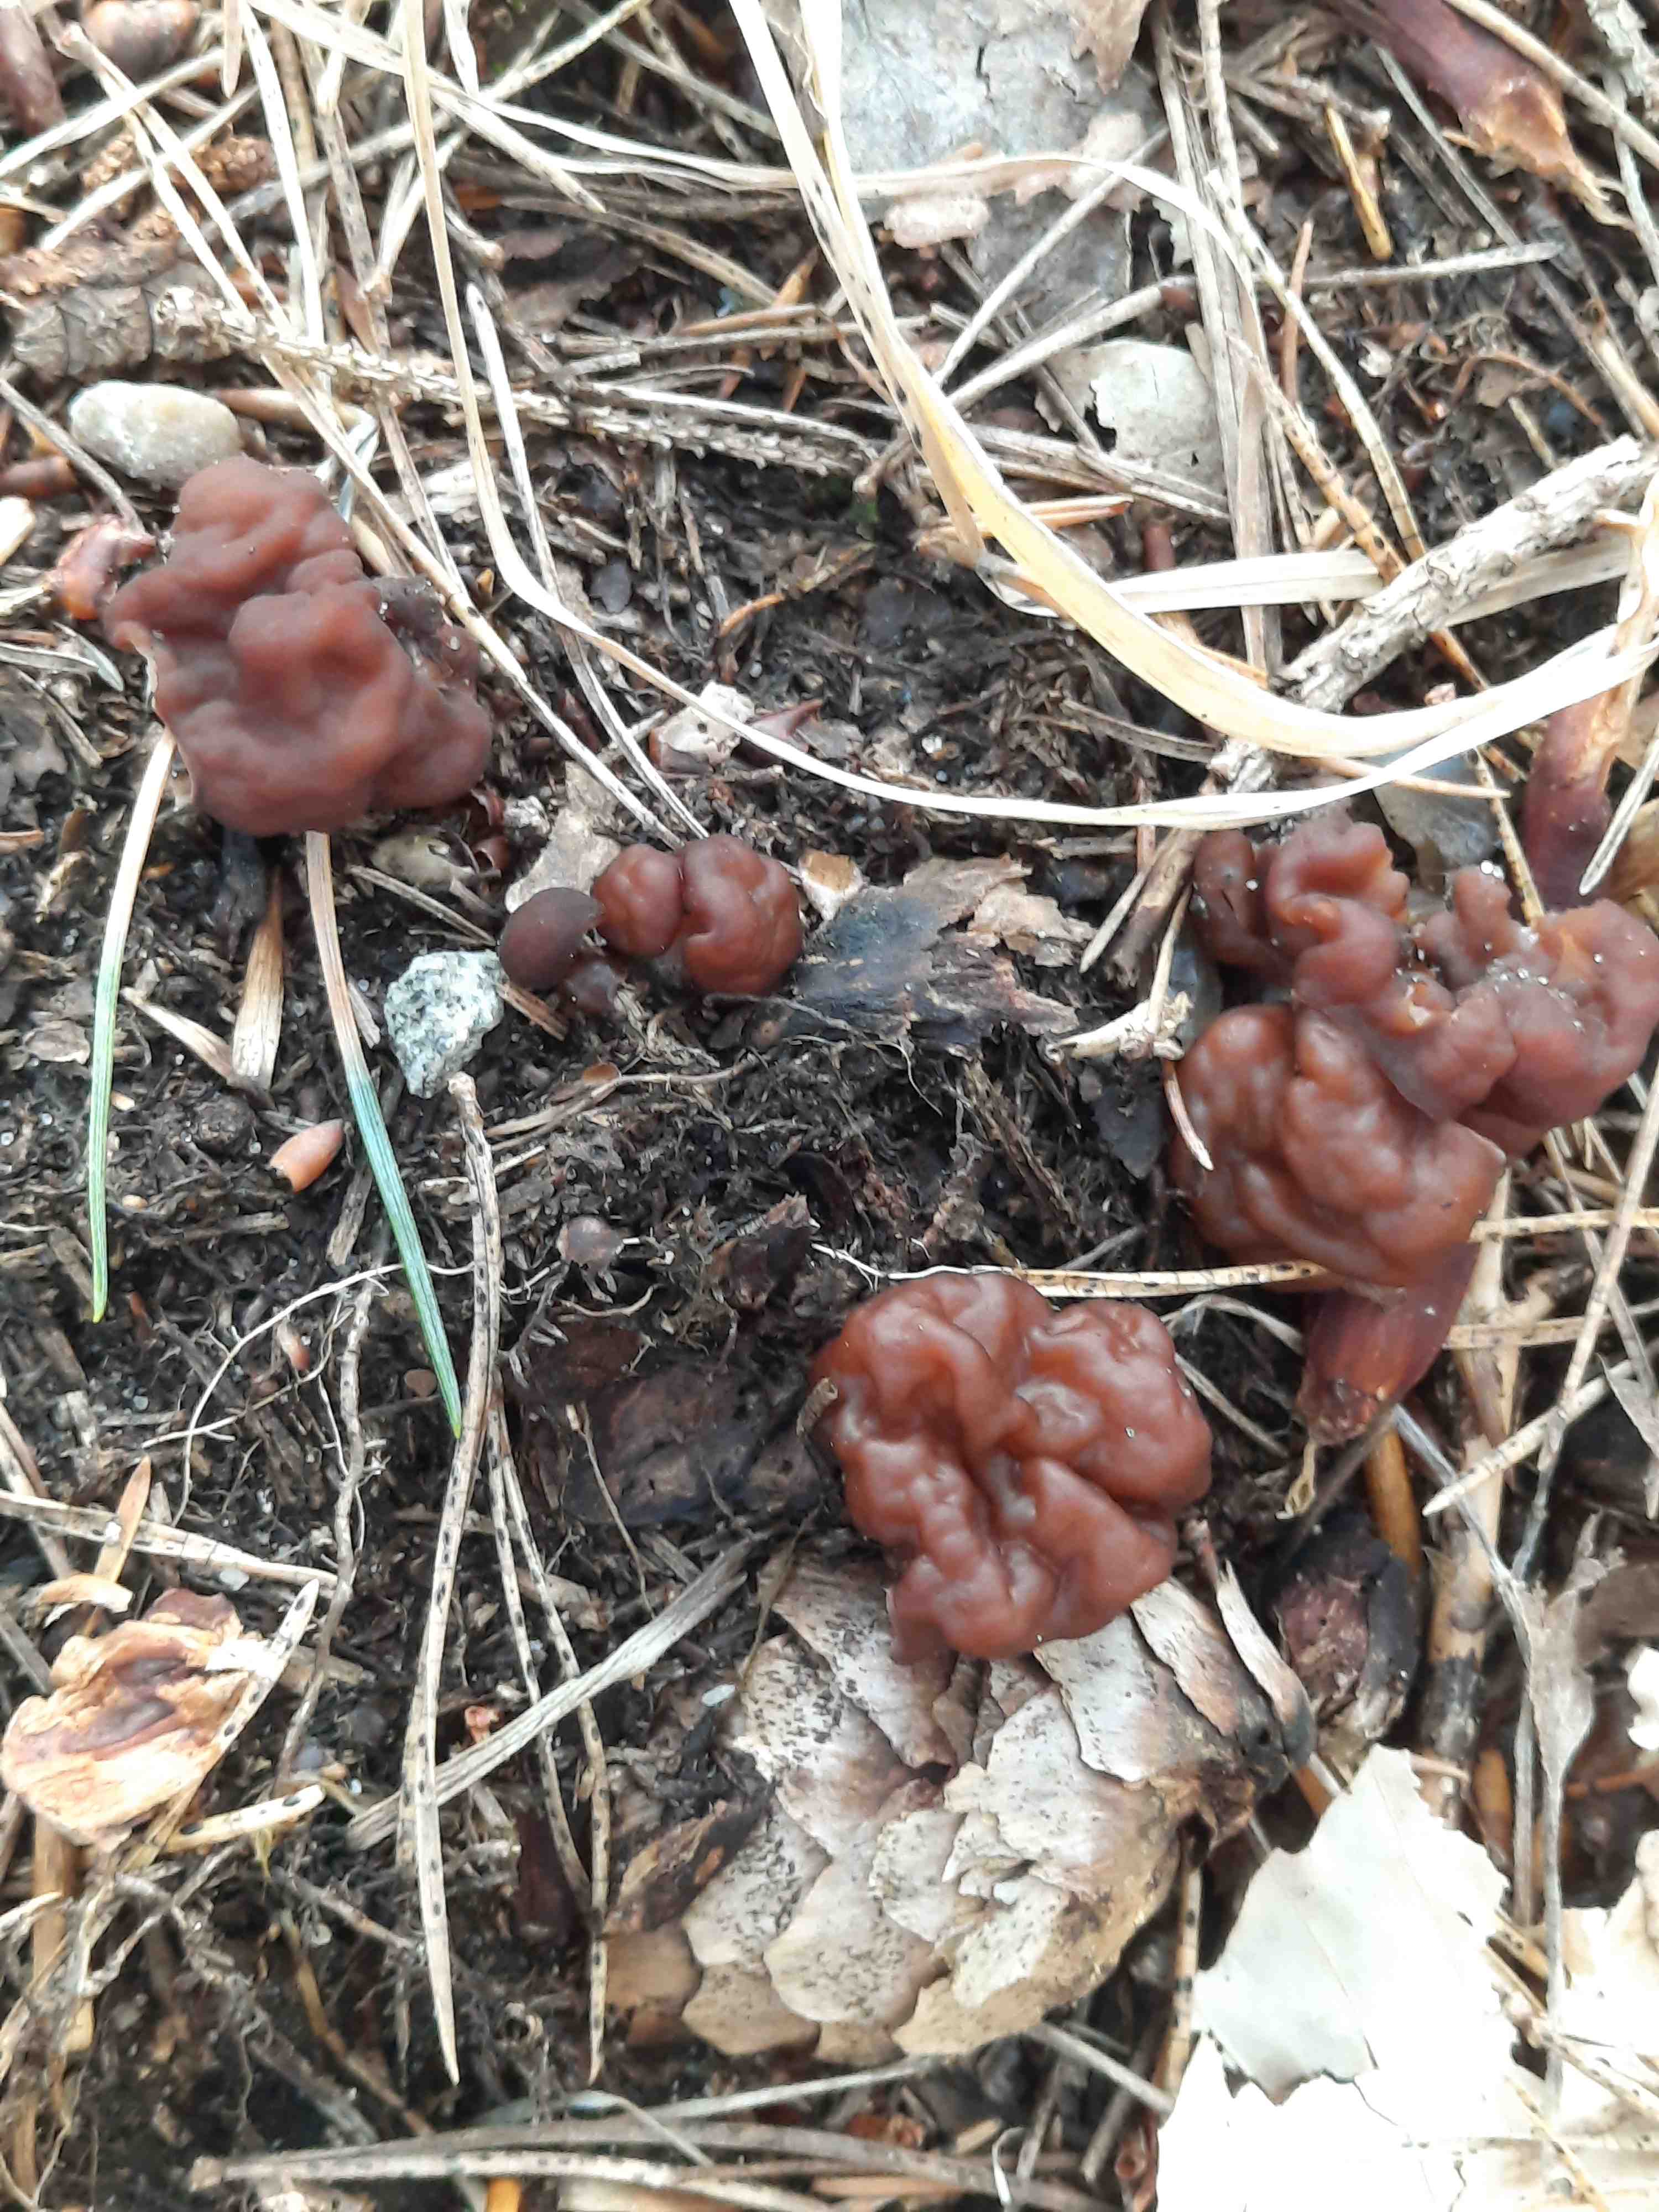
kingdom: Fungi
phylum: Ascomycota
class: Pezizomycetes
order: Pezizales
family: Discinaceae
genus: Gyromitra
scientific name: Gyromitra esculenta
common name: ægte stenmorkel
